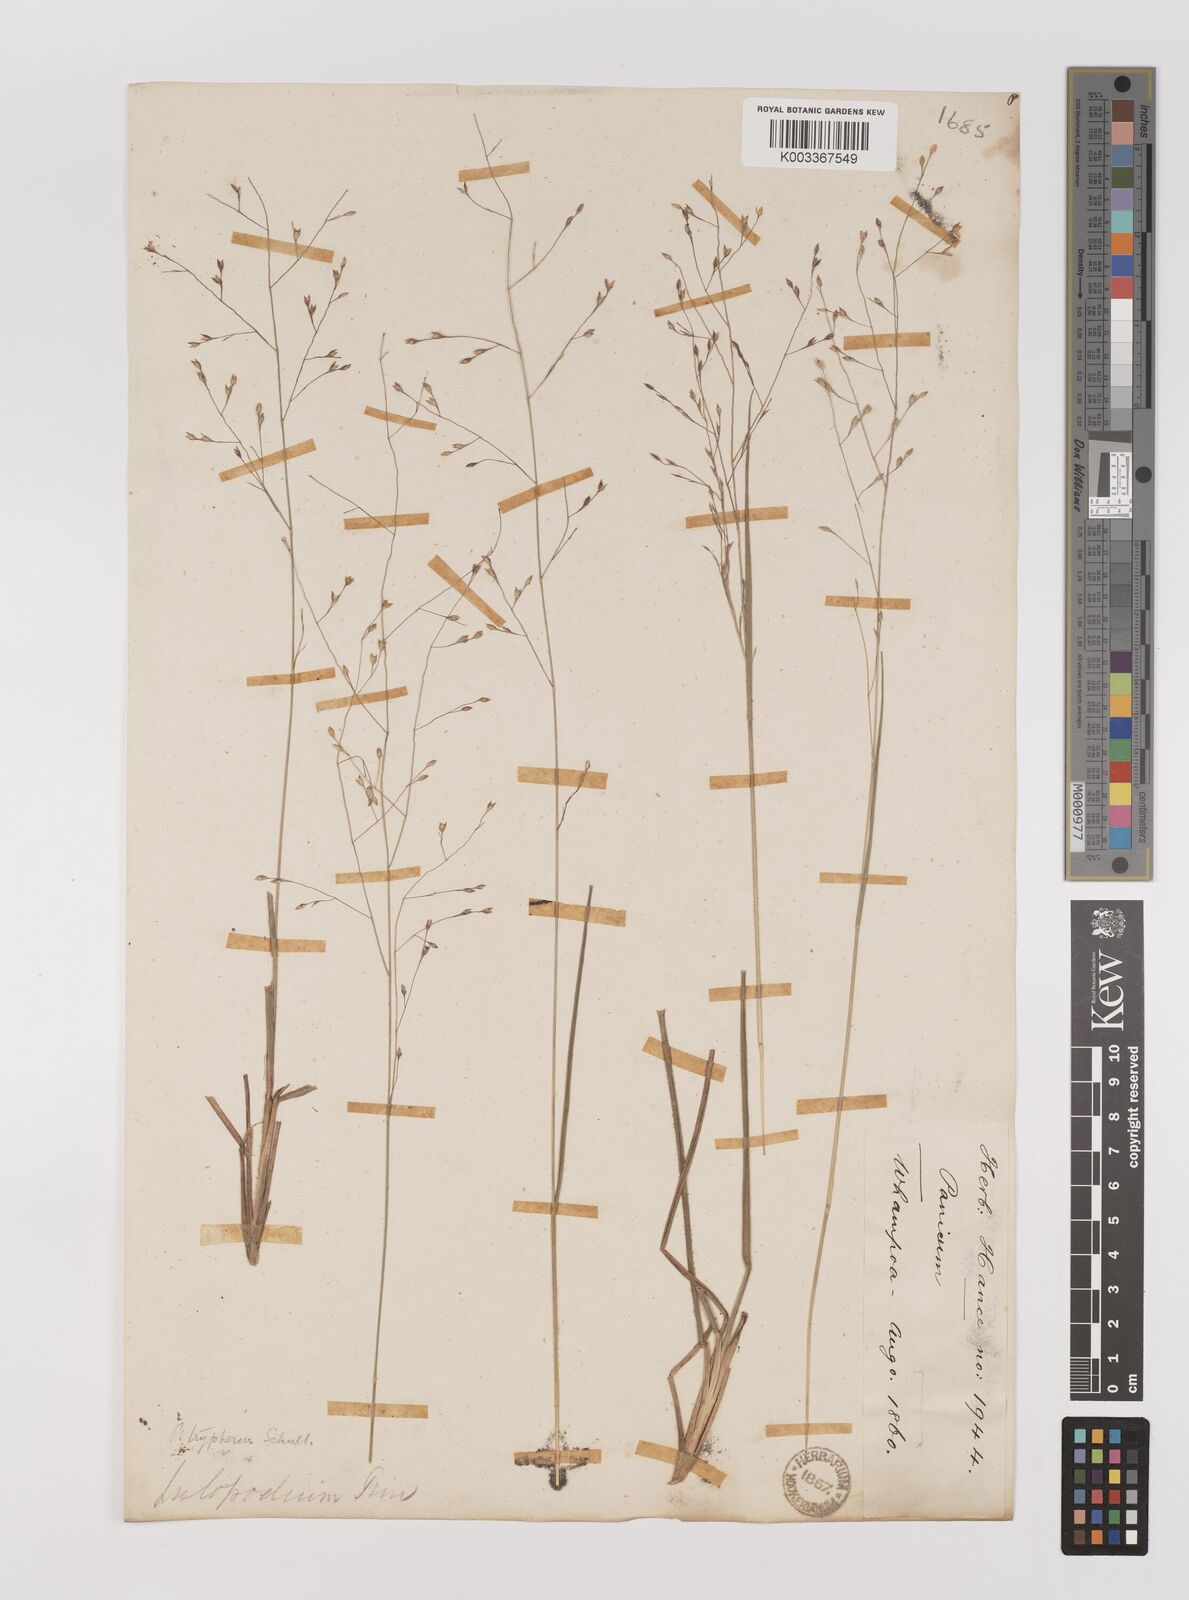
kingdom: Plantae
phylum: Tracheophyta
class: Liliopsida
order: Poales
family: Poaceae
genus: Panicum
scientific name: Panicum elegantissimum
